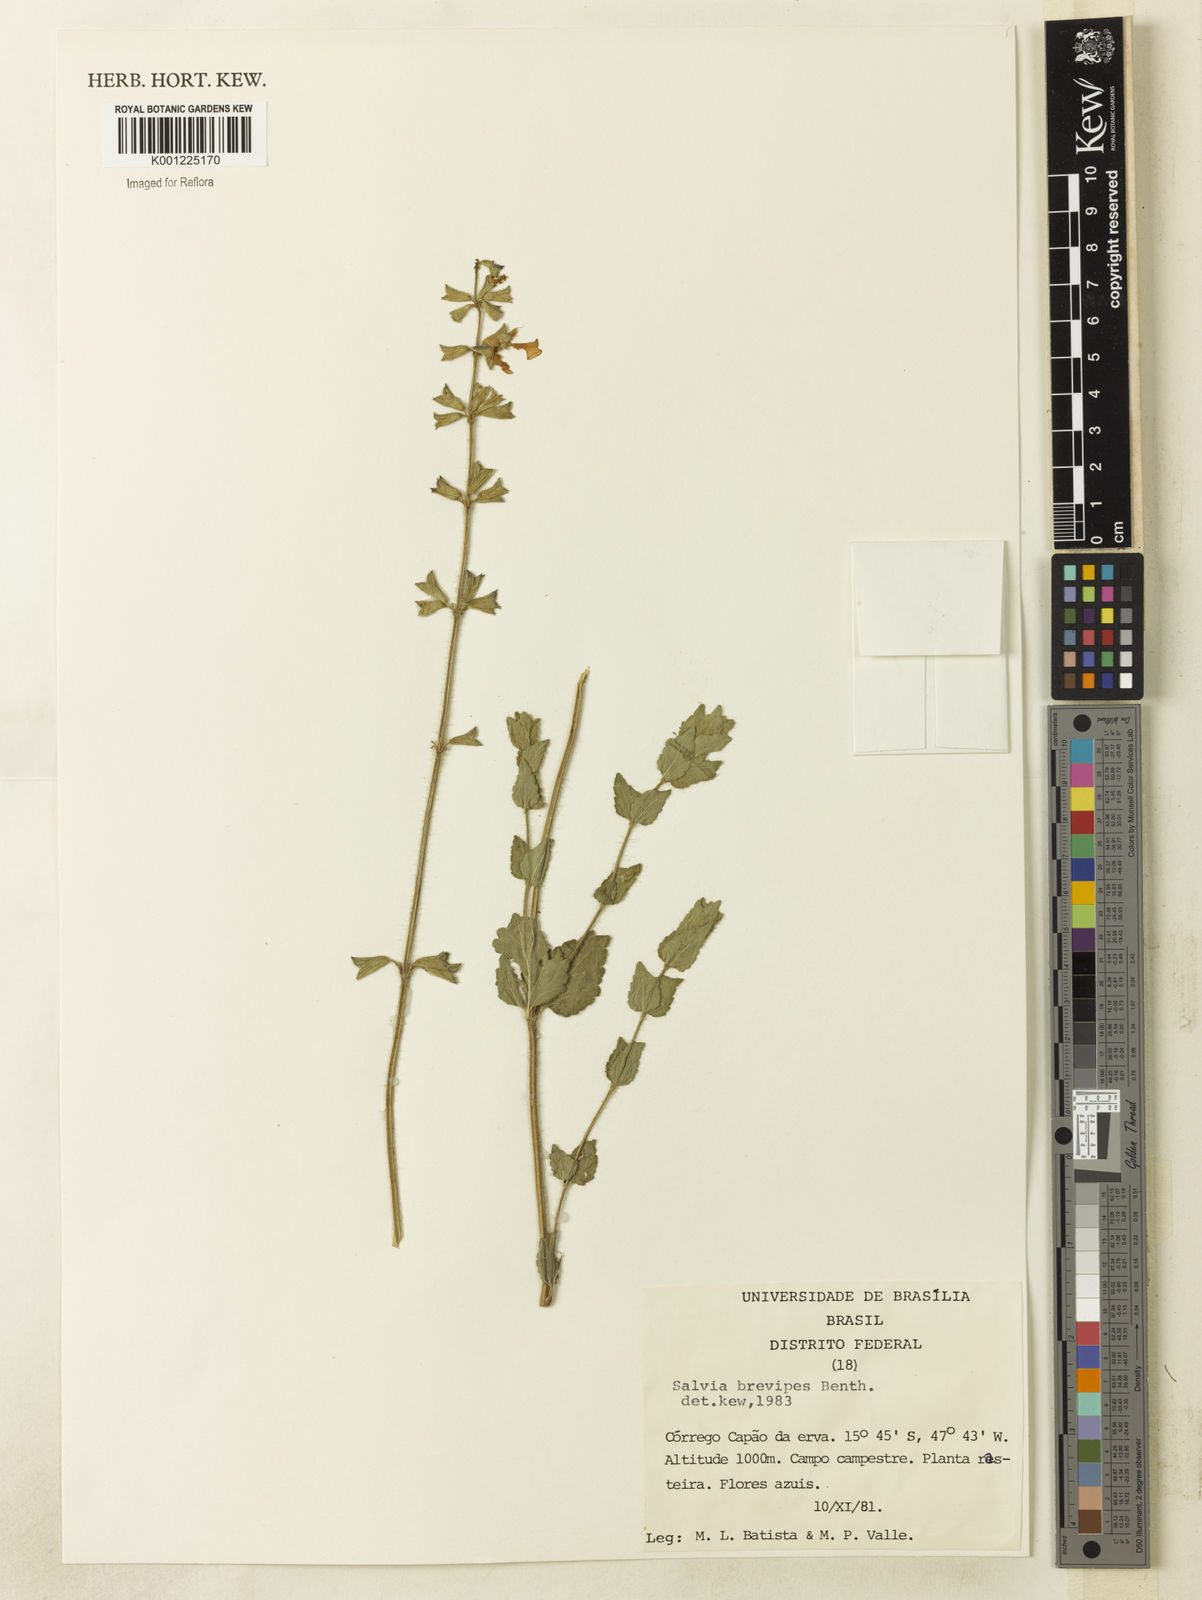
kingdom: Plantae
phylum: Tracheophyta
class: Magnoliopsida
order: Lamiales
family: Lamiaceae
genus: Salvia
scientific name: Salvia cerradicola
